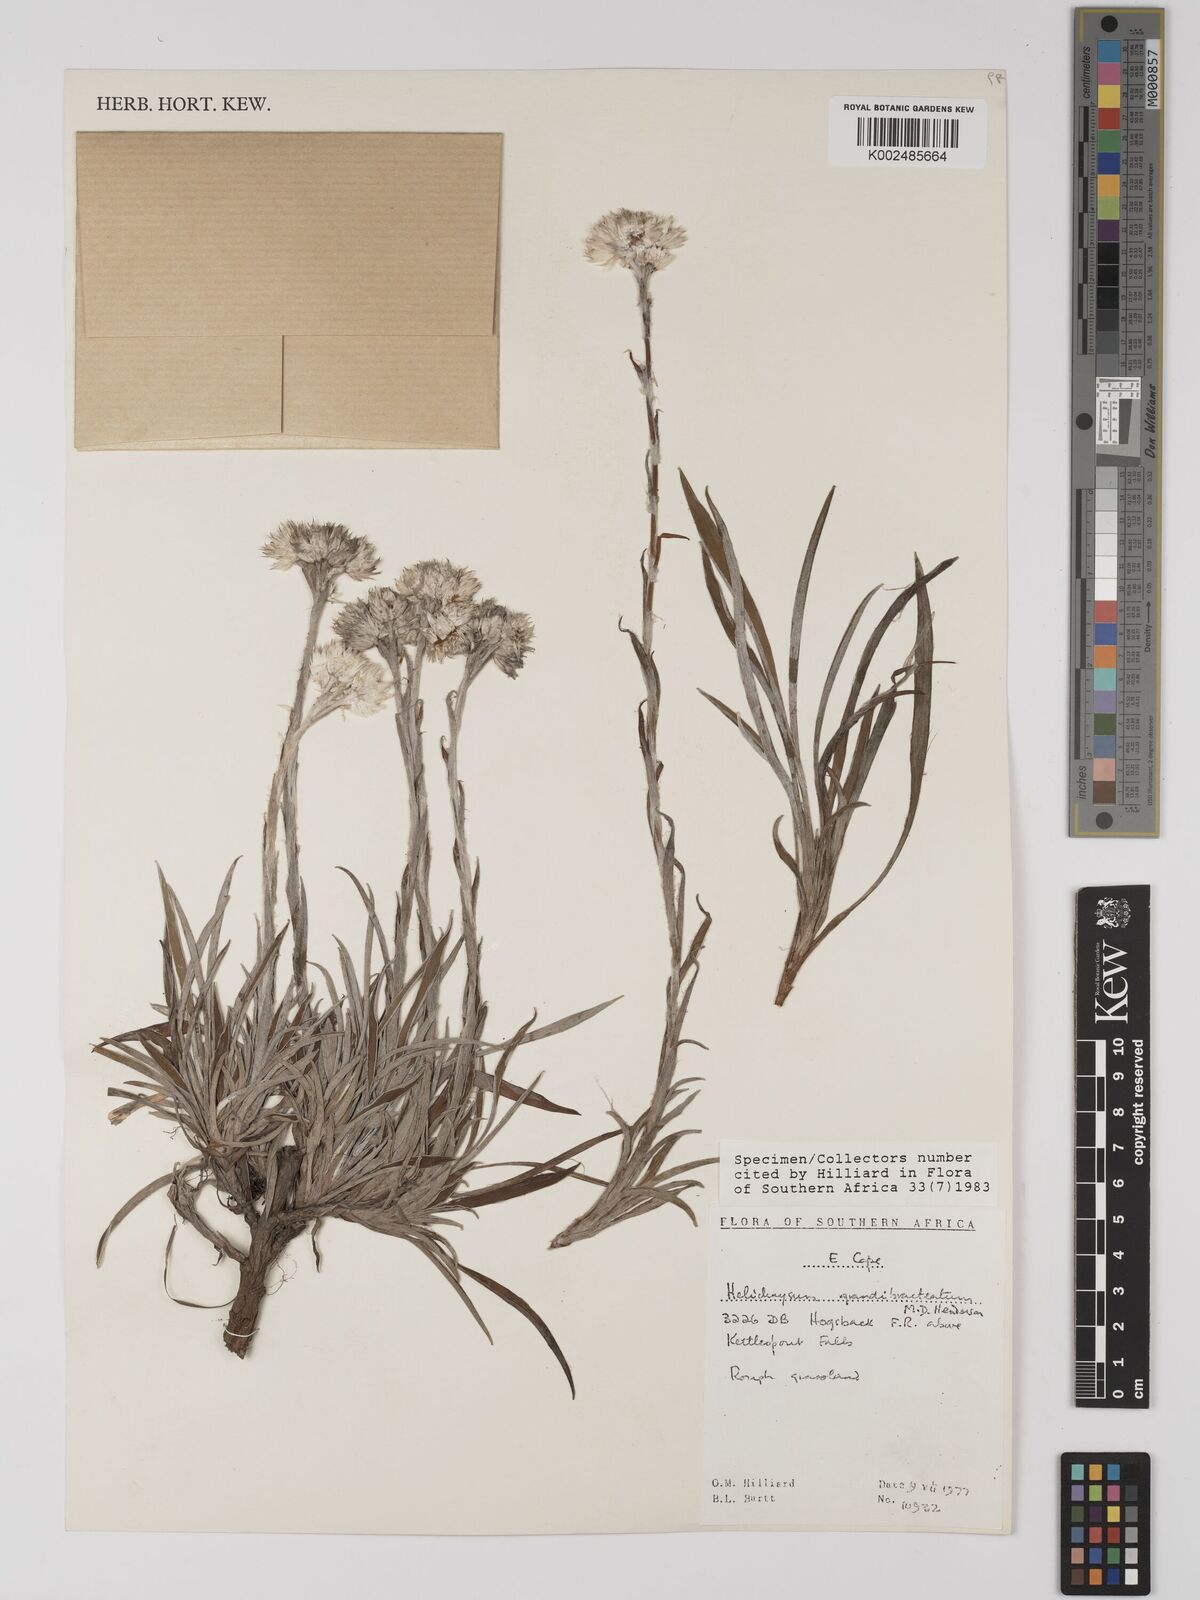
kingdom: Plantae
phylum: Tracheophyta
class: Magnoliopsida
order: Asterales
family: Asteraceae
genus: Helichrysum
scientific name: Helichrysum grandibracteatum
